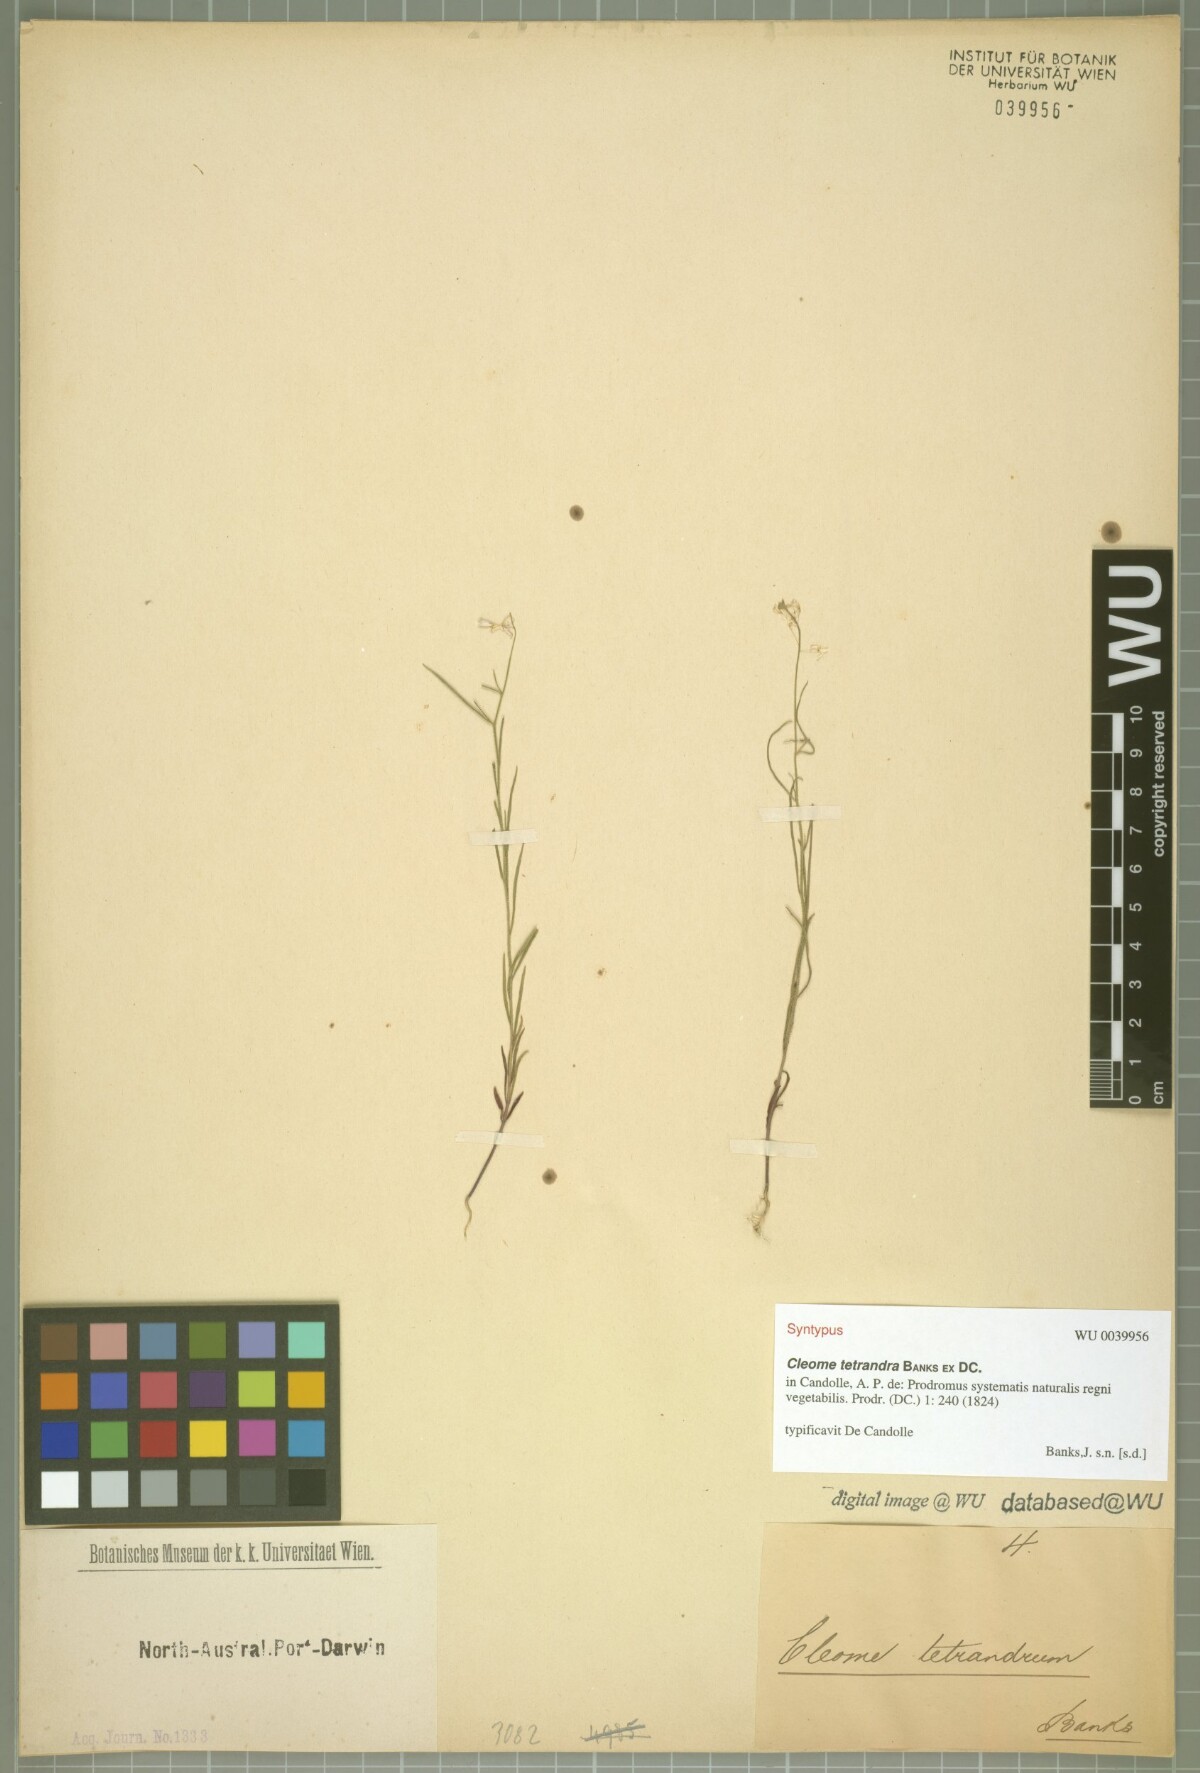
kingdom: Plantae
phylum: Tracheophyta
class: Magnoliopsida
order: Brassicales
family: Cleomaceae
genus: Arivela
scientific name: Arivela tetrandra
